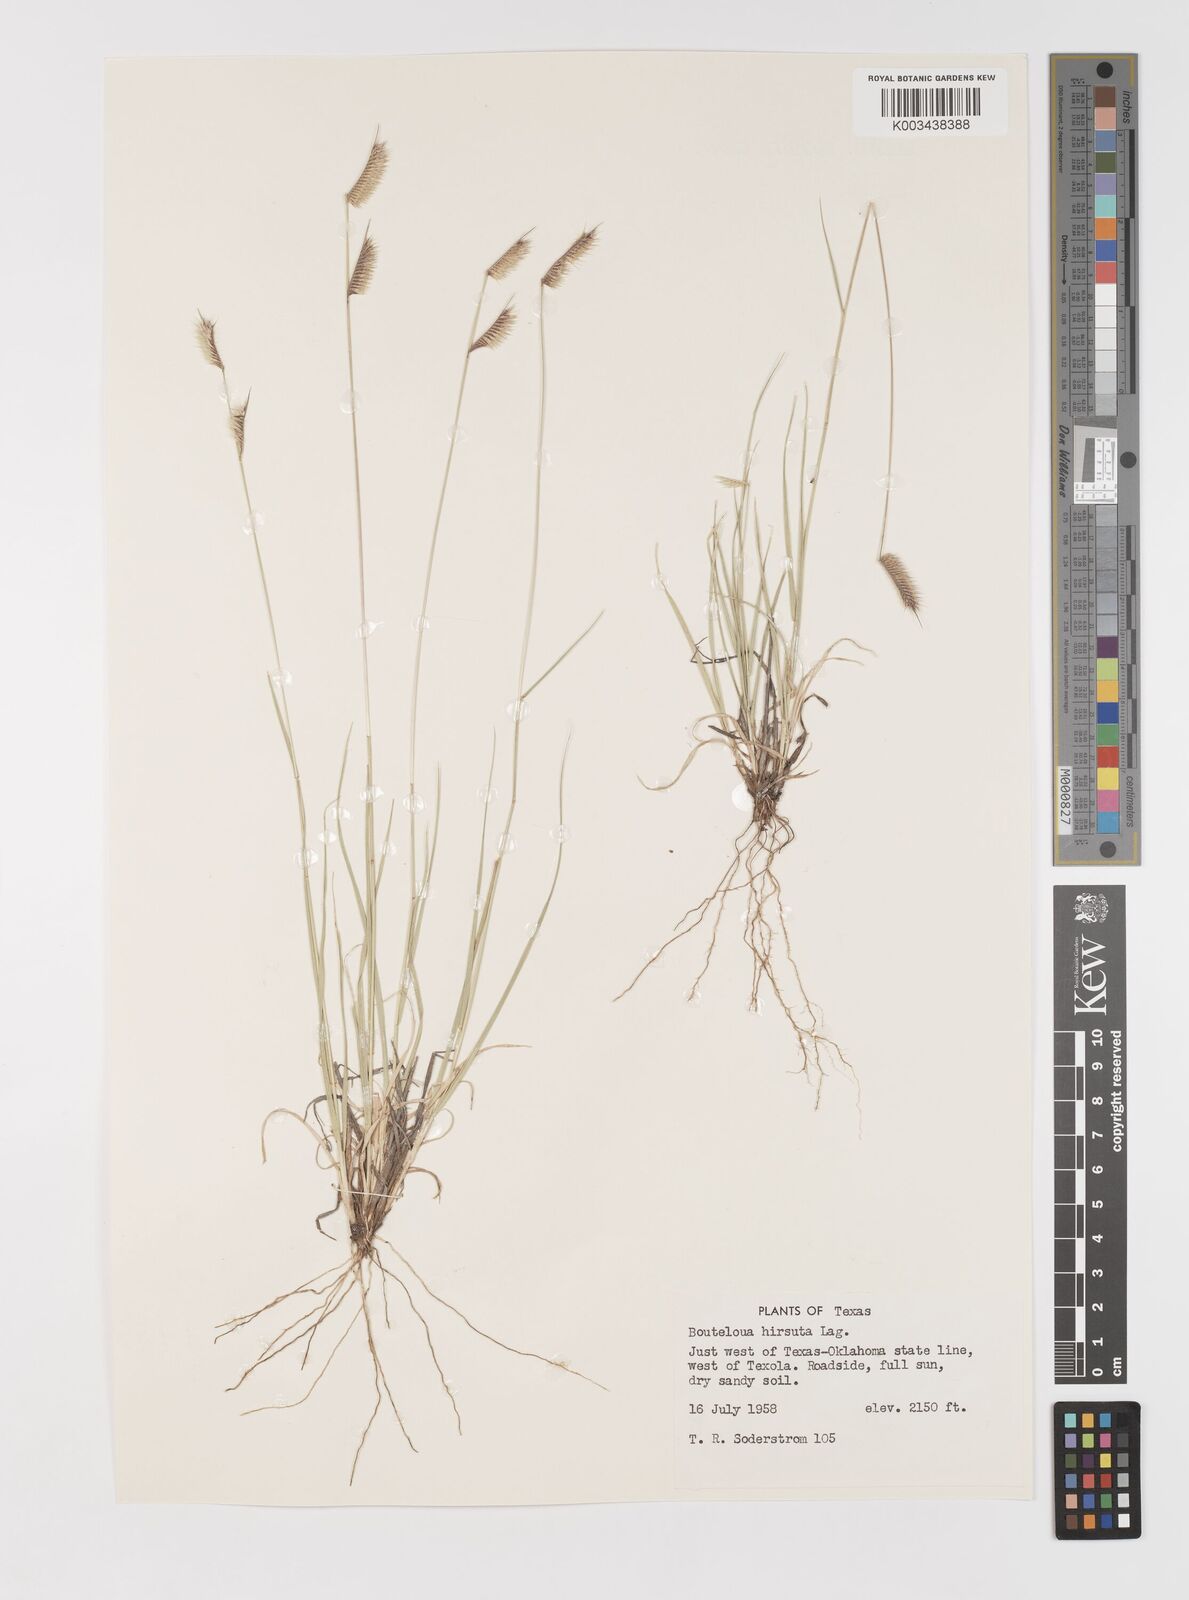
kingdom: Plantae
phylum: Tracheophyta
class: Liliopsida
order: Poales
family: Poaceae
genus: Bouteloua
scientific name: Bouteloua hirsuta
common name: Hairy grama
